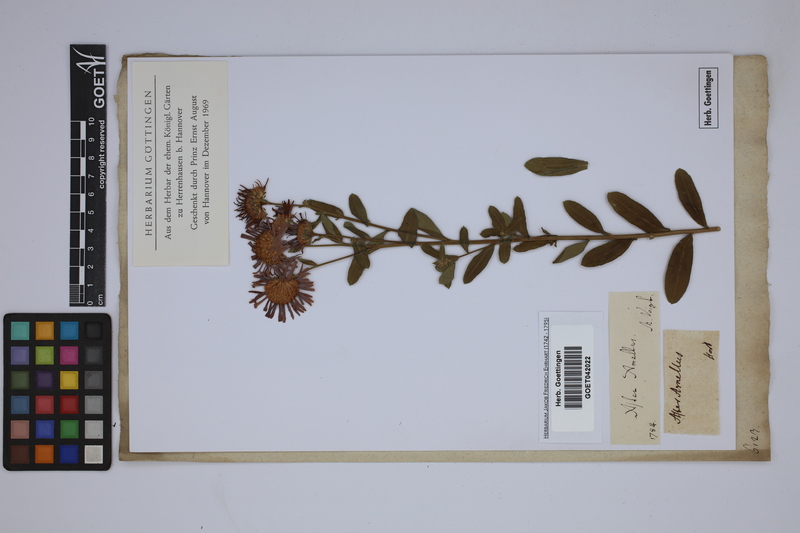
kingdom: Plantae
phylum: Tracheophyta
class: Magnoliopsida
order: Asterales
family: Asteraceae
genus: Aster
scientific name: Aster amellus
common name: European michaelmas daisy
